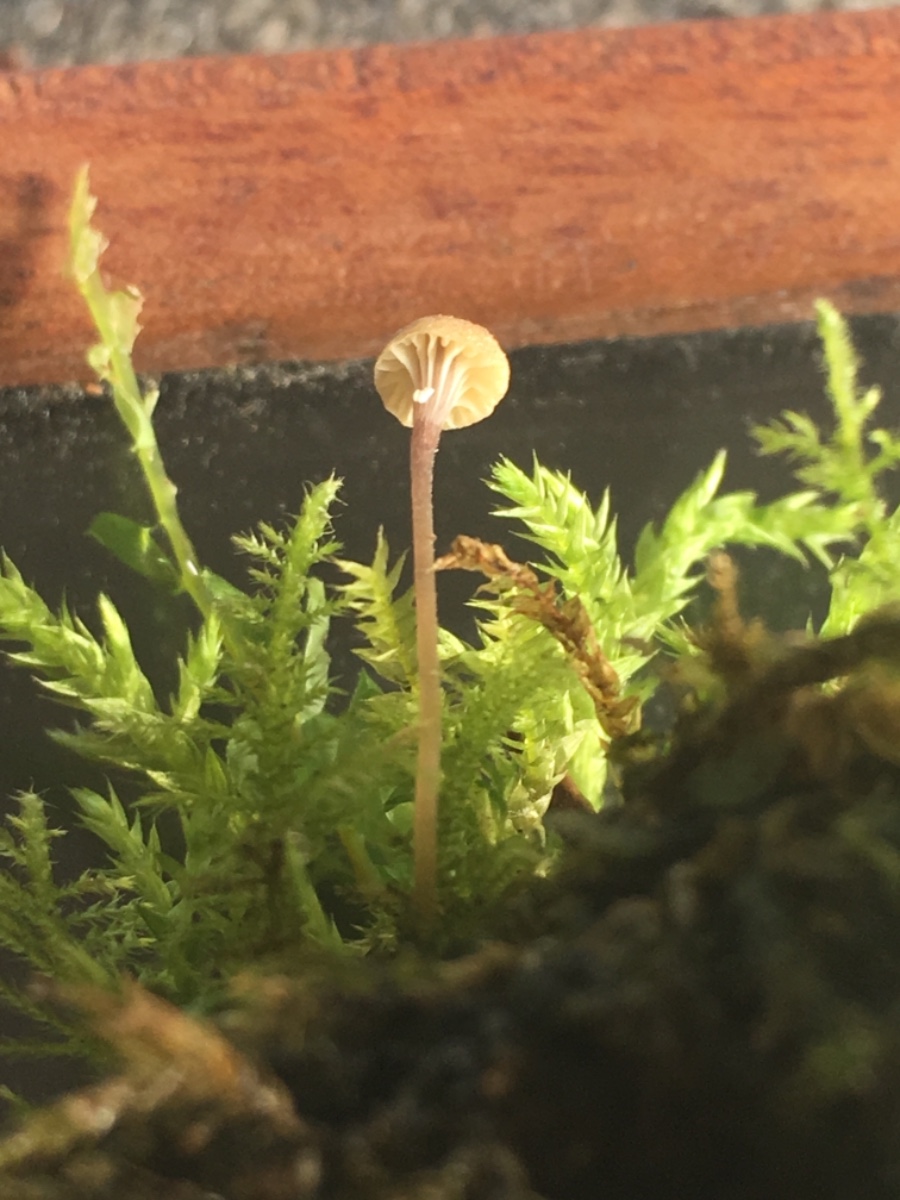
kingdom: Fungi
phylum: Basidiomycota
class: Agaricomycetes
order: Hymenochaetales
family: Rickenellaceae
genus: Rickenella
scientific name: Rickenella swartzii
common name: finstokket mosnavlehat
